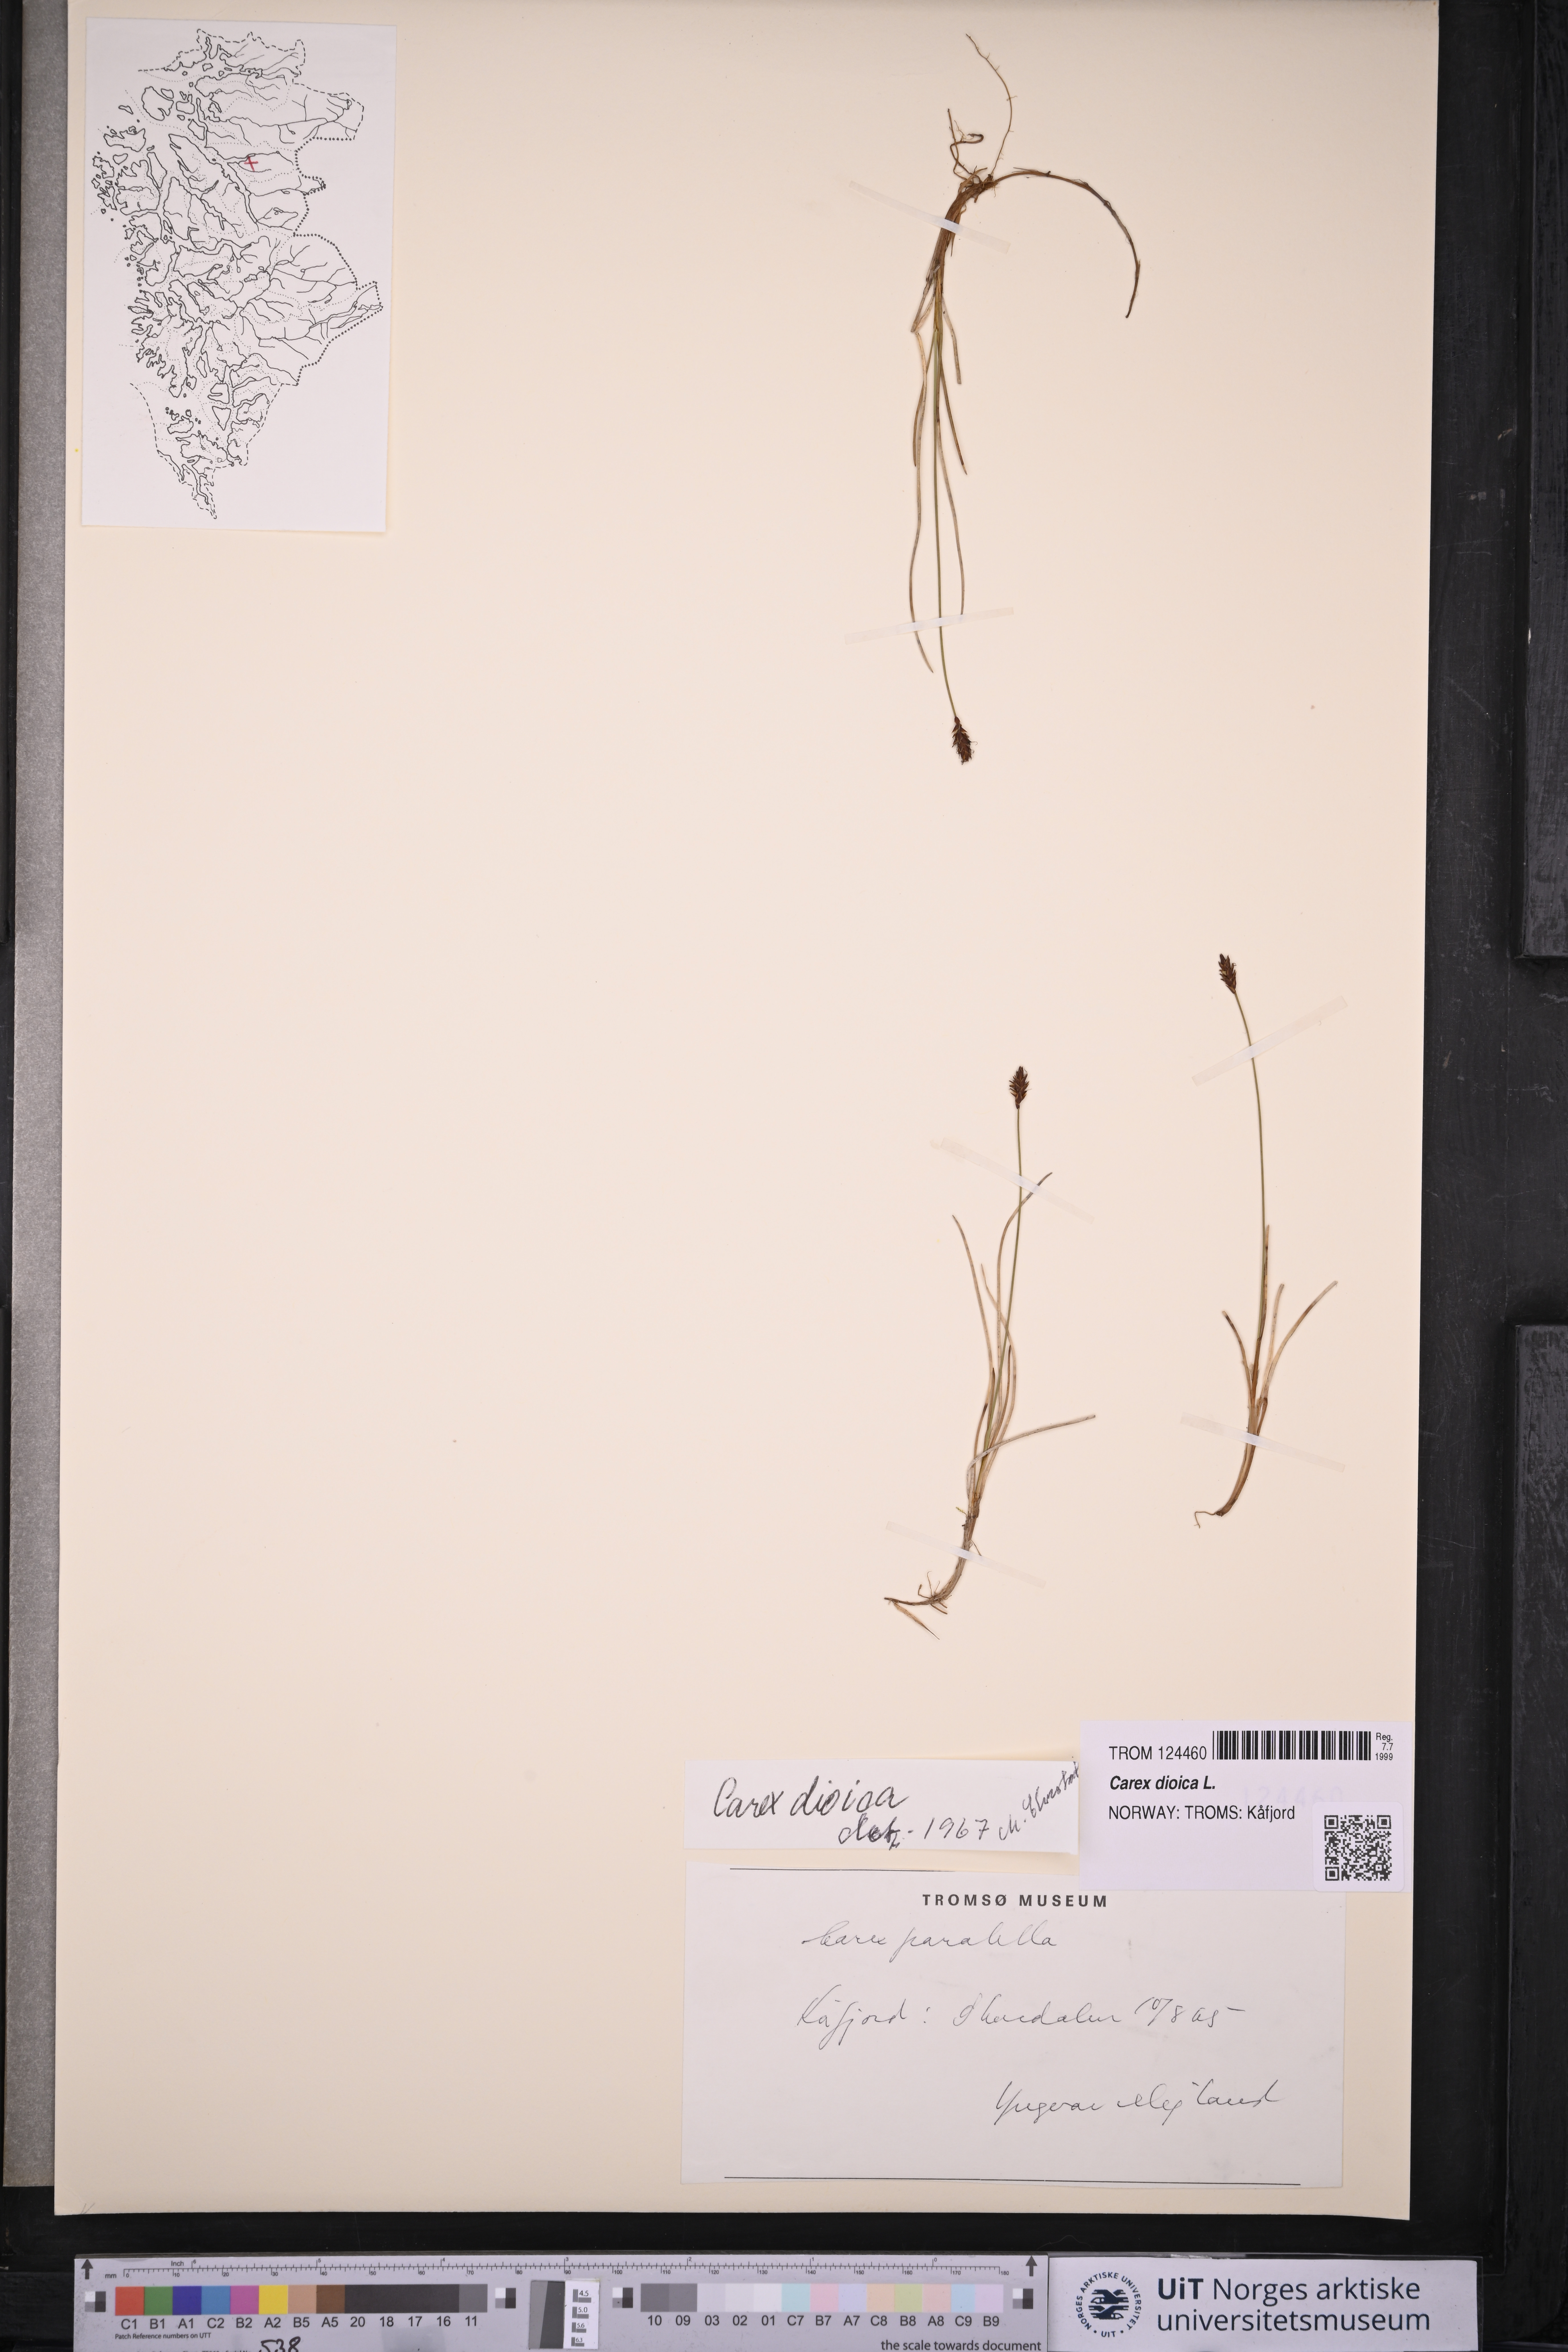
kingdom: Plantae
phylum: Tracheophyta
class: Liliopsida
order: Poales
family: Cyperaceae
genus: Carex
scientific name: Carex dioica
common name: Dioecious sedge
